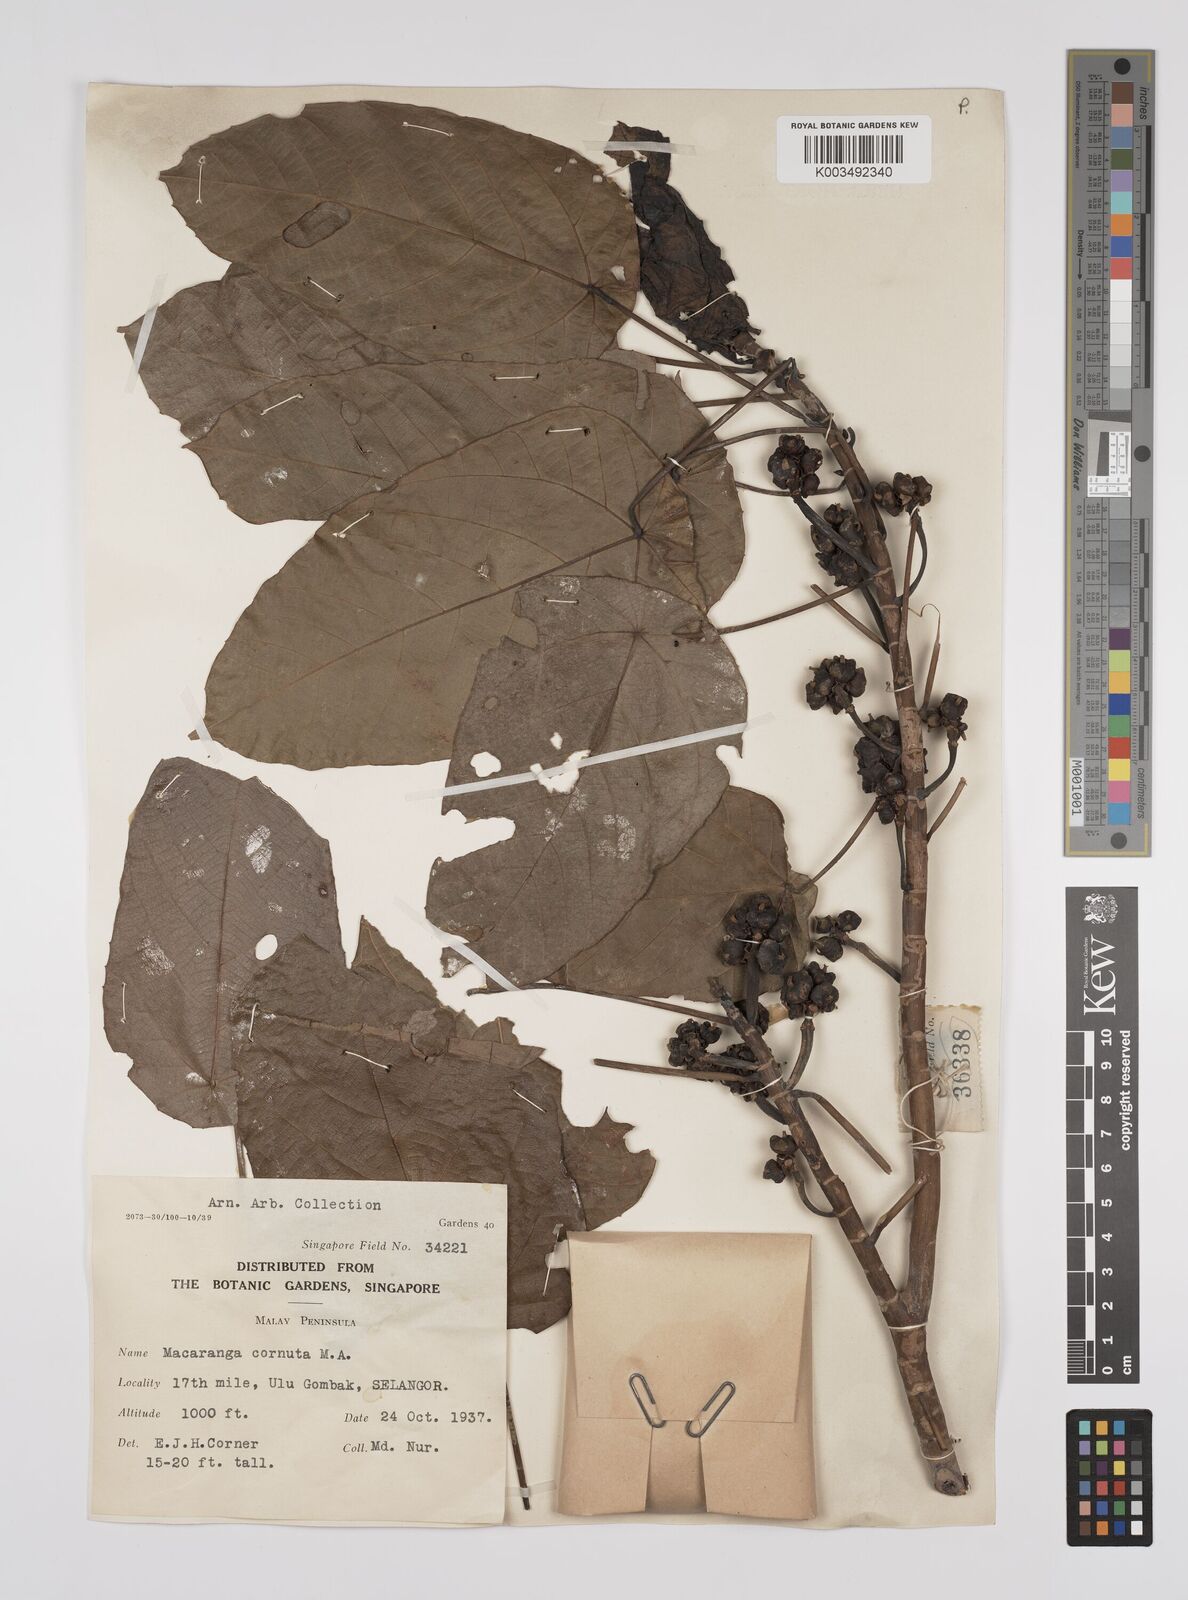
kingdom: Plantae
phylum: Tracheophyta
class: Magnoliopsida
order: Malpighiales
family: Euphorbiaceae
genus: Macaranga
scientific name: Macaranga hullettii
